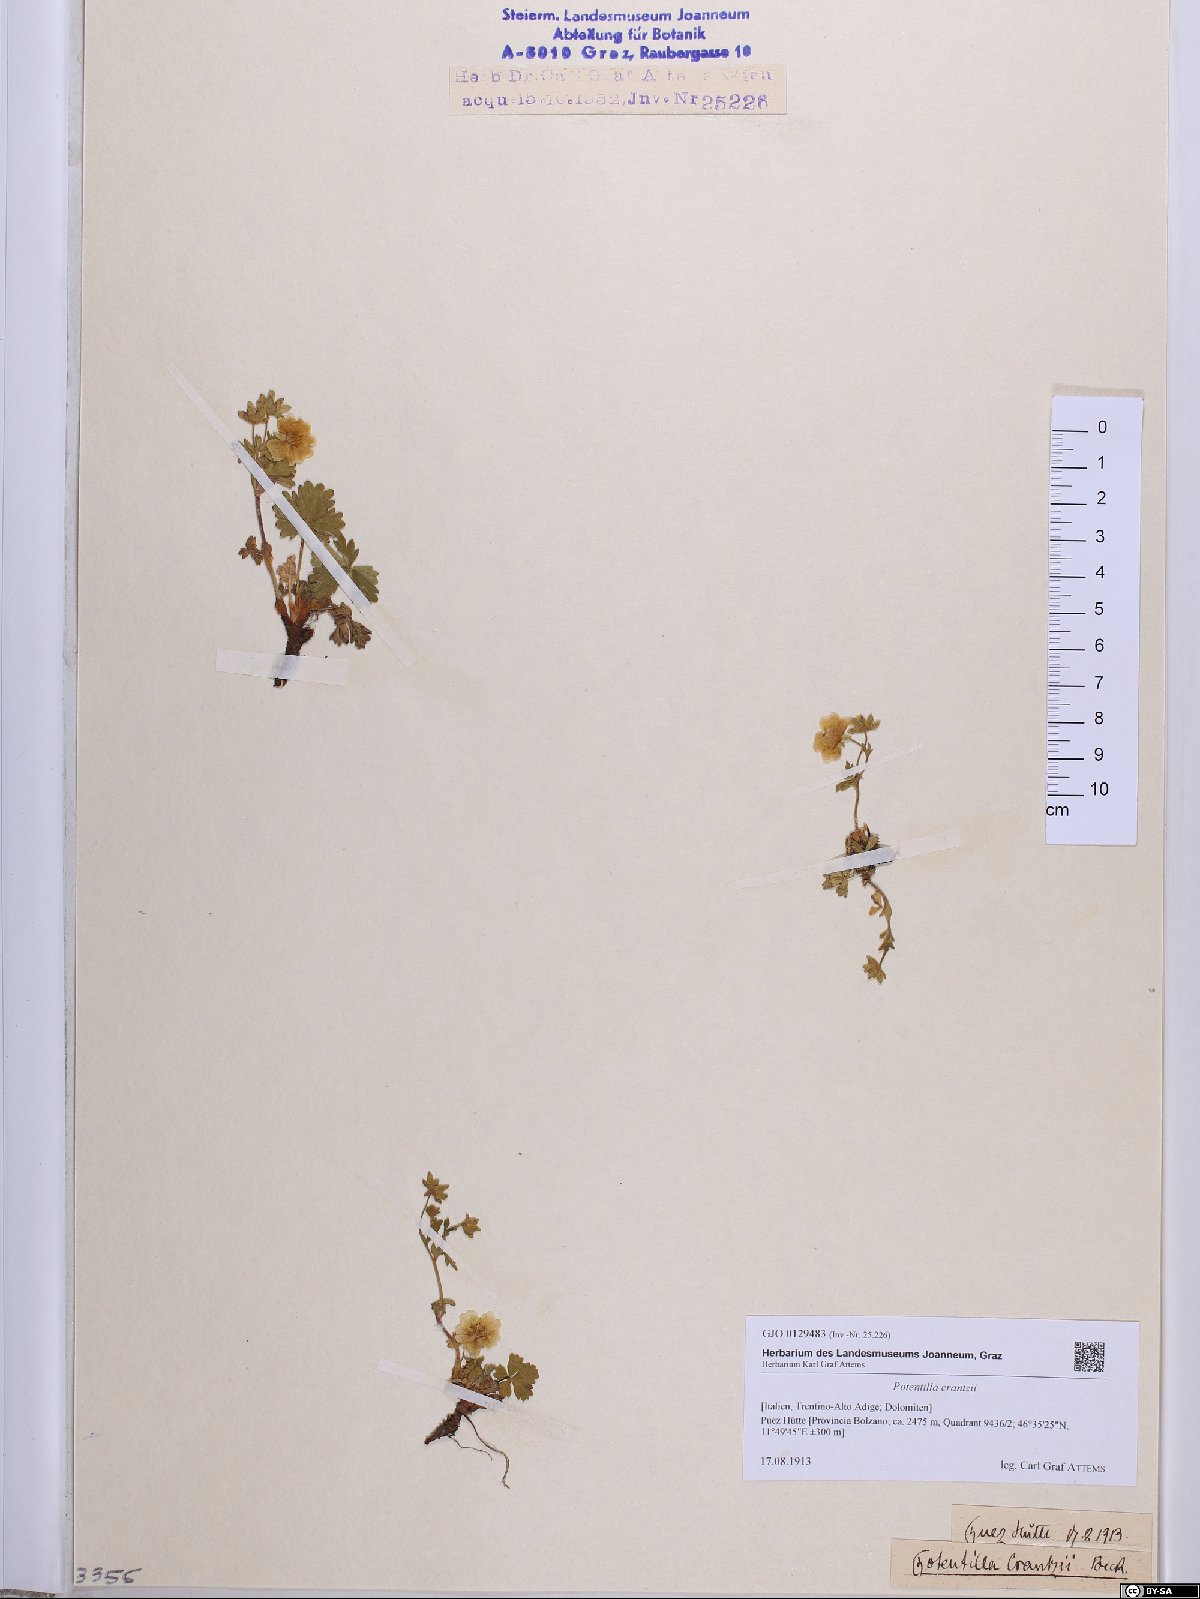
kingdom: Plantae
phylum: Tracheophyta
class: Magnoliopsida
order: Rosales
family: Rosaceae
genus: Potentilla
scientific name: Potentilla crantzii
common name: Alpine cinquefoil
